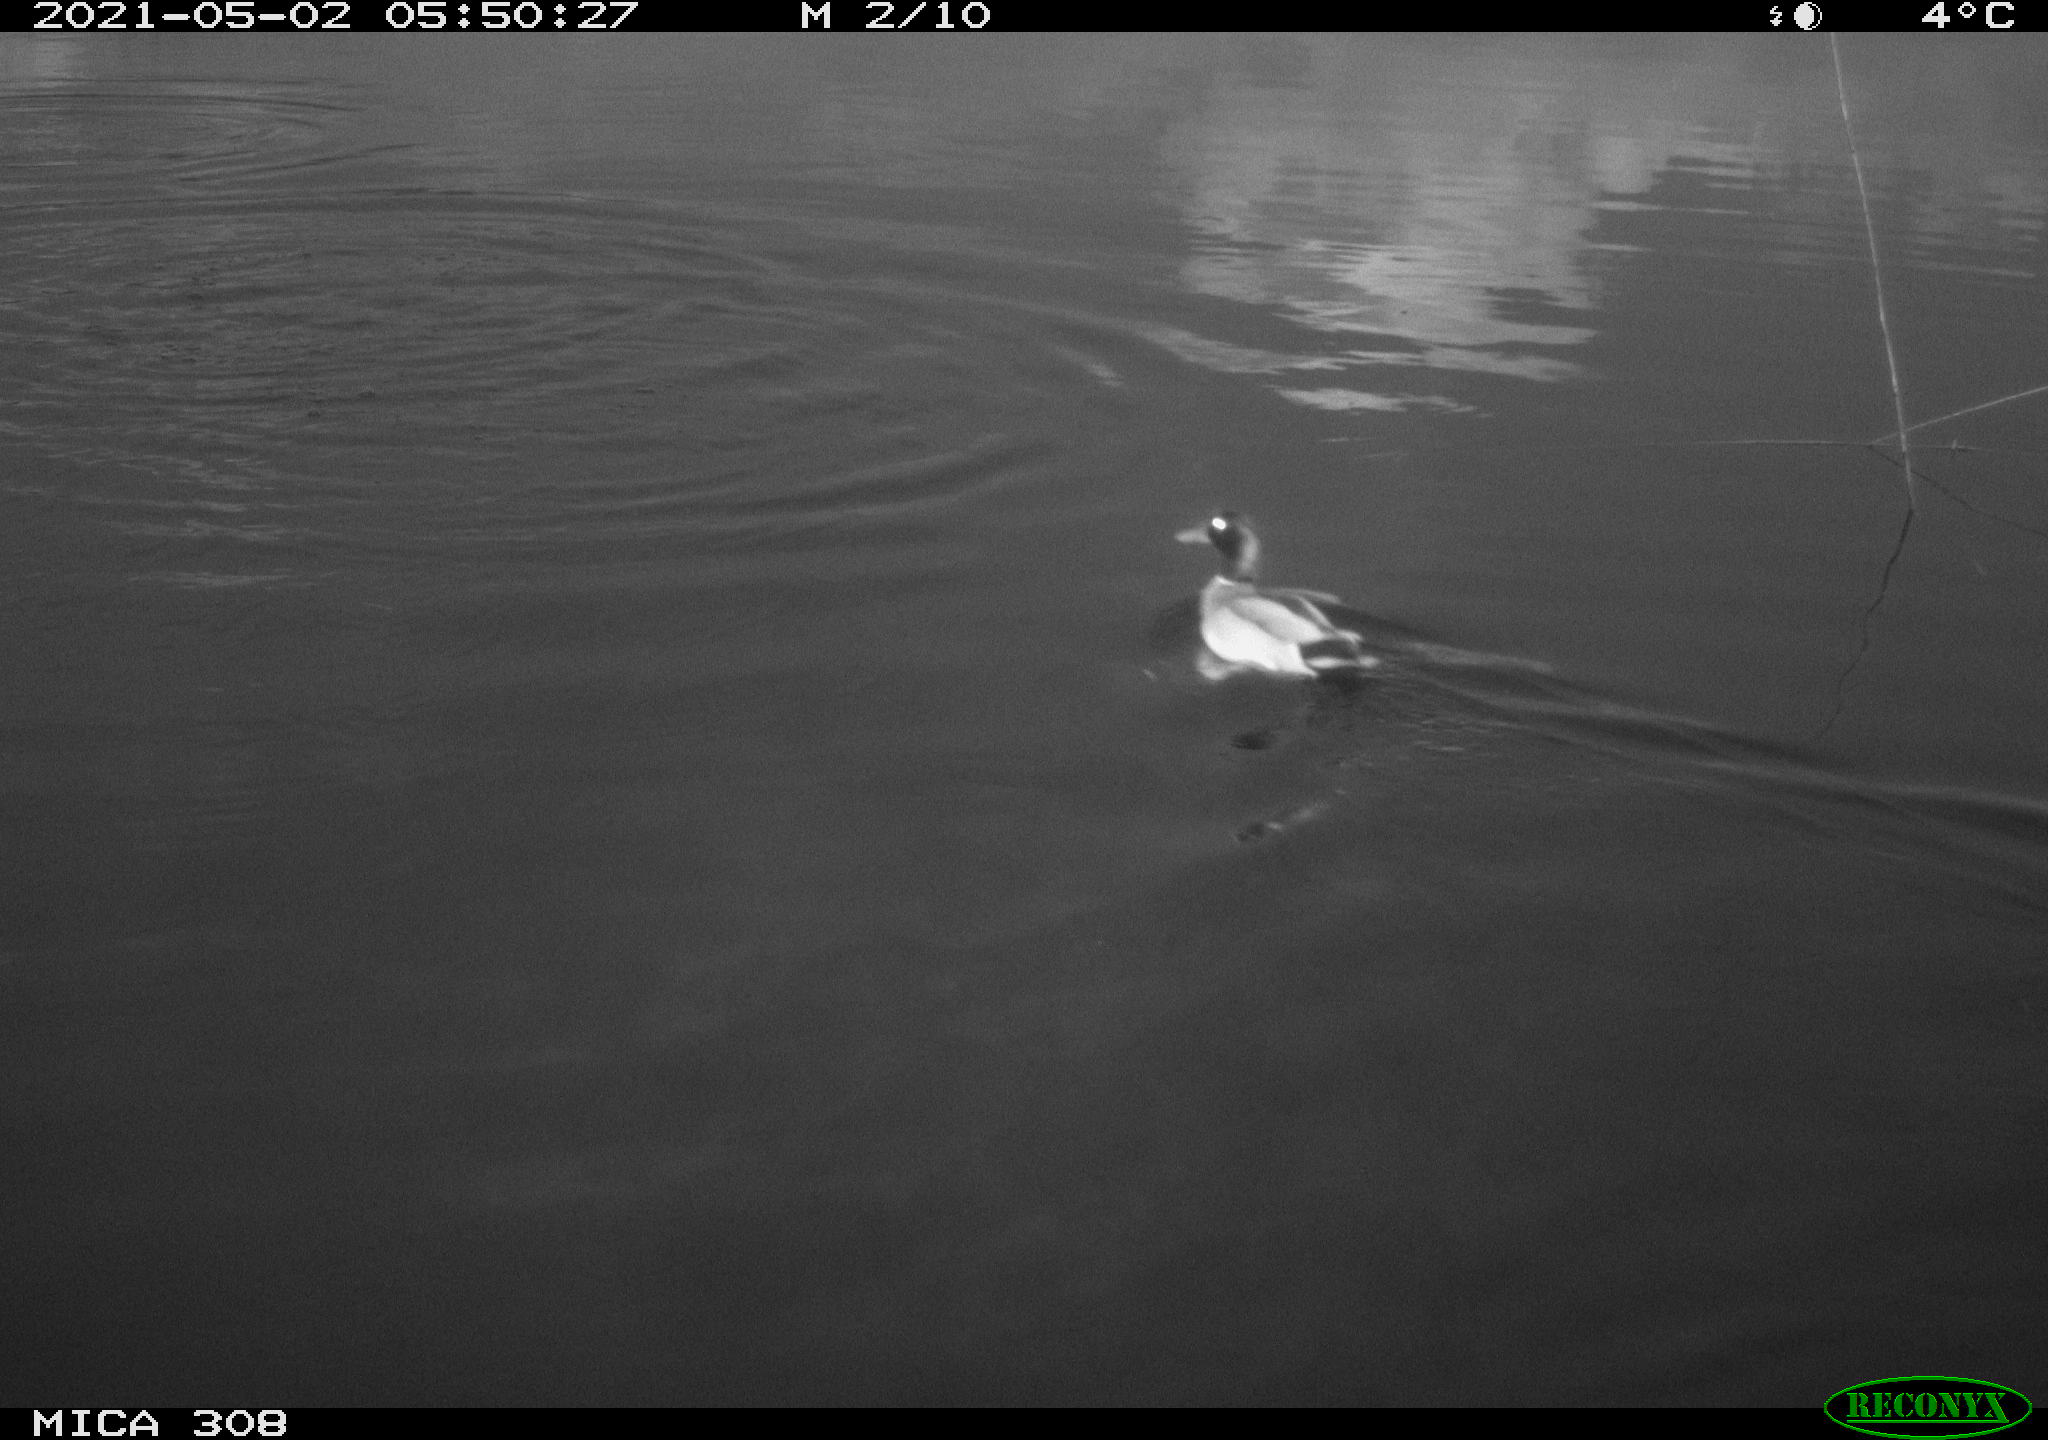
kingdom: Animalia
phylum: Chordata
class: Aves
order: Gruiformes
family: Rallidae
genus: Gallinula
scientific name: Gallinula chloropus
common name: Common moorhen
